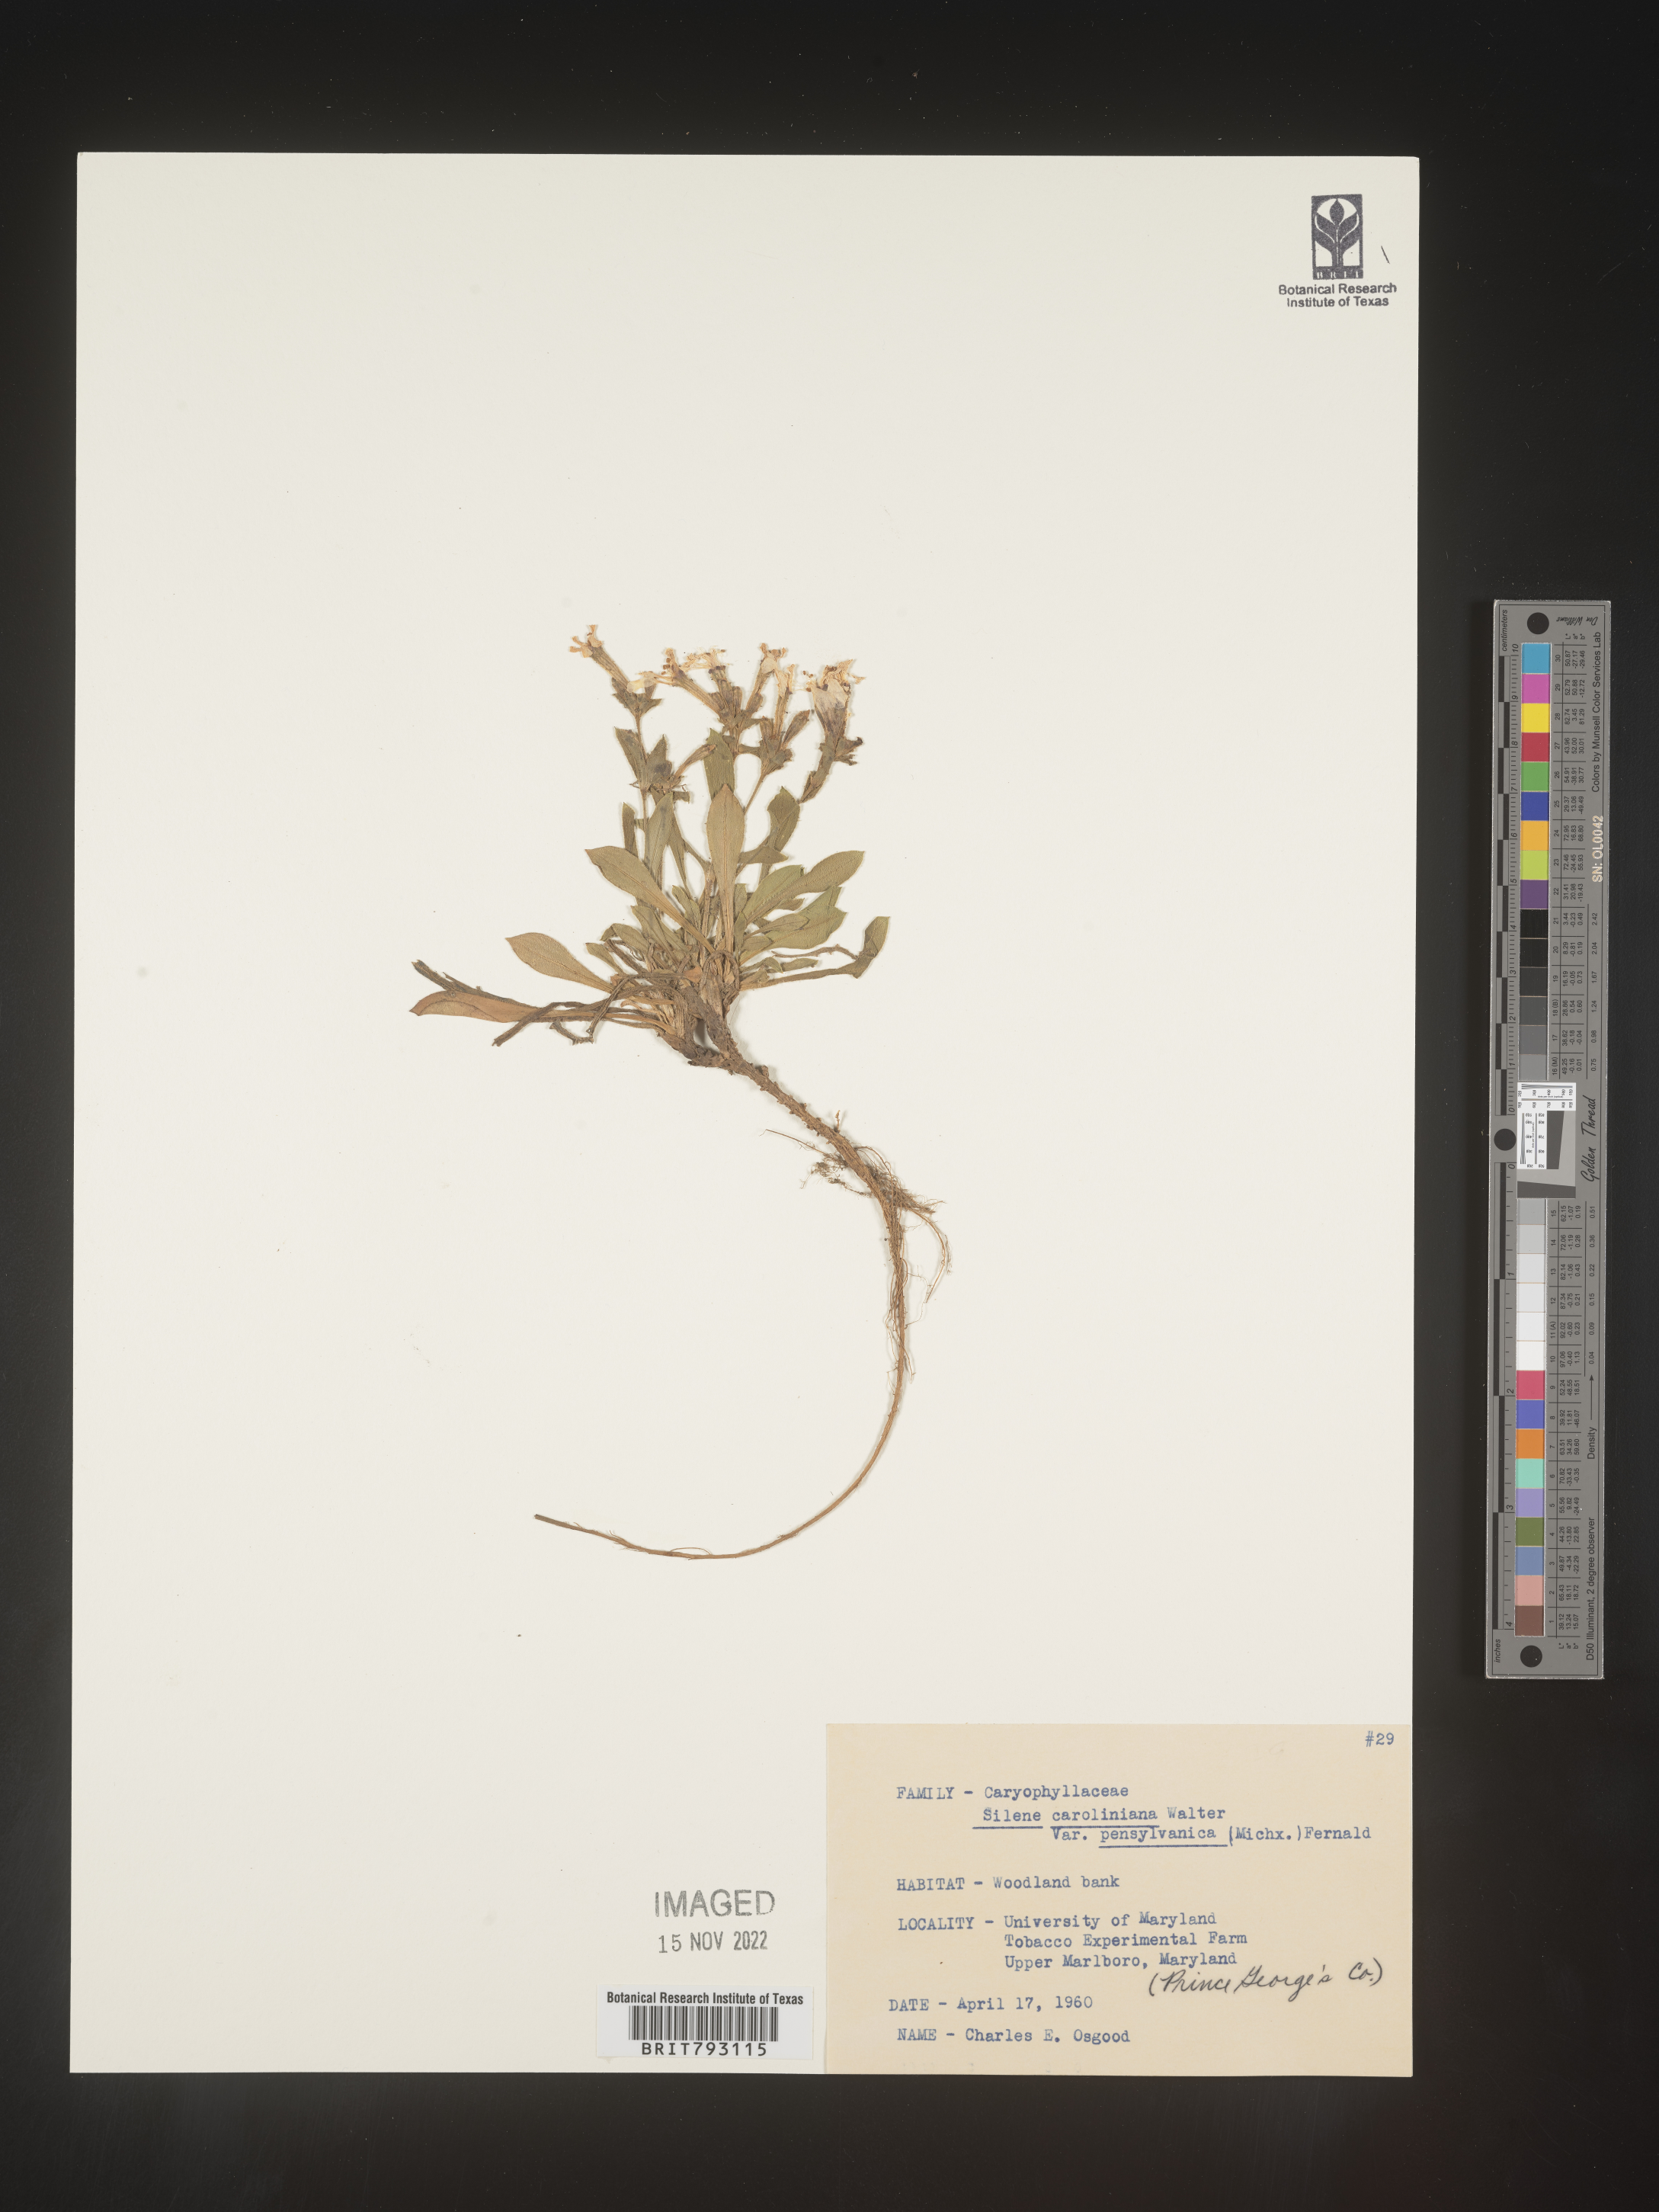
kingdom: Plantae
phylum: Tracheophyta
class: Magnoliopsida
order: Caryophyllales
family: Caryophyllaceae
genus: Silene
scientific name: Silene caroliniana
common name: Sticky catchfly
